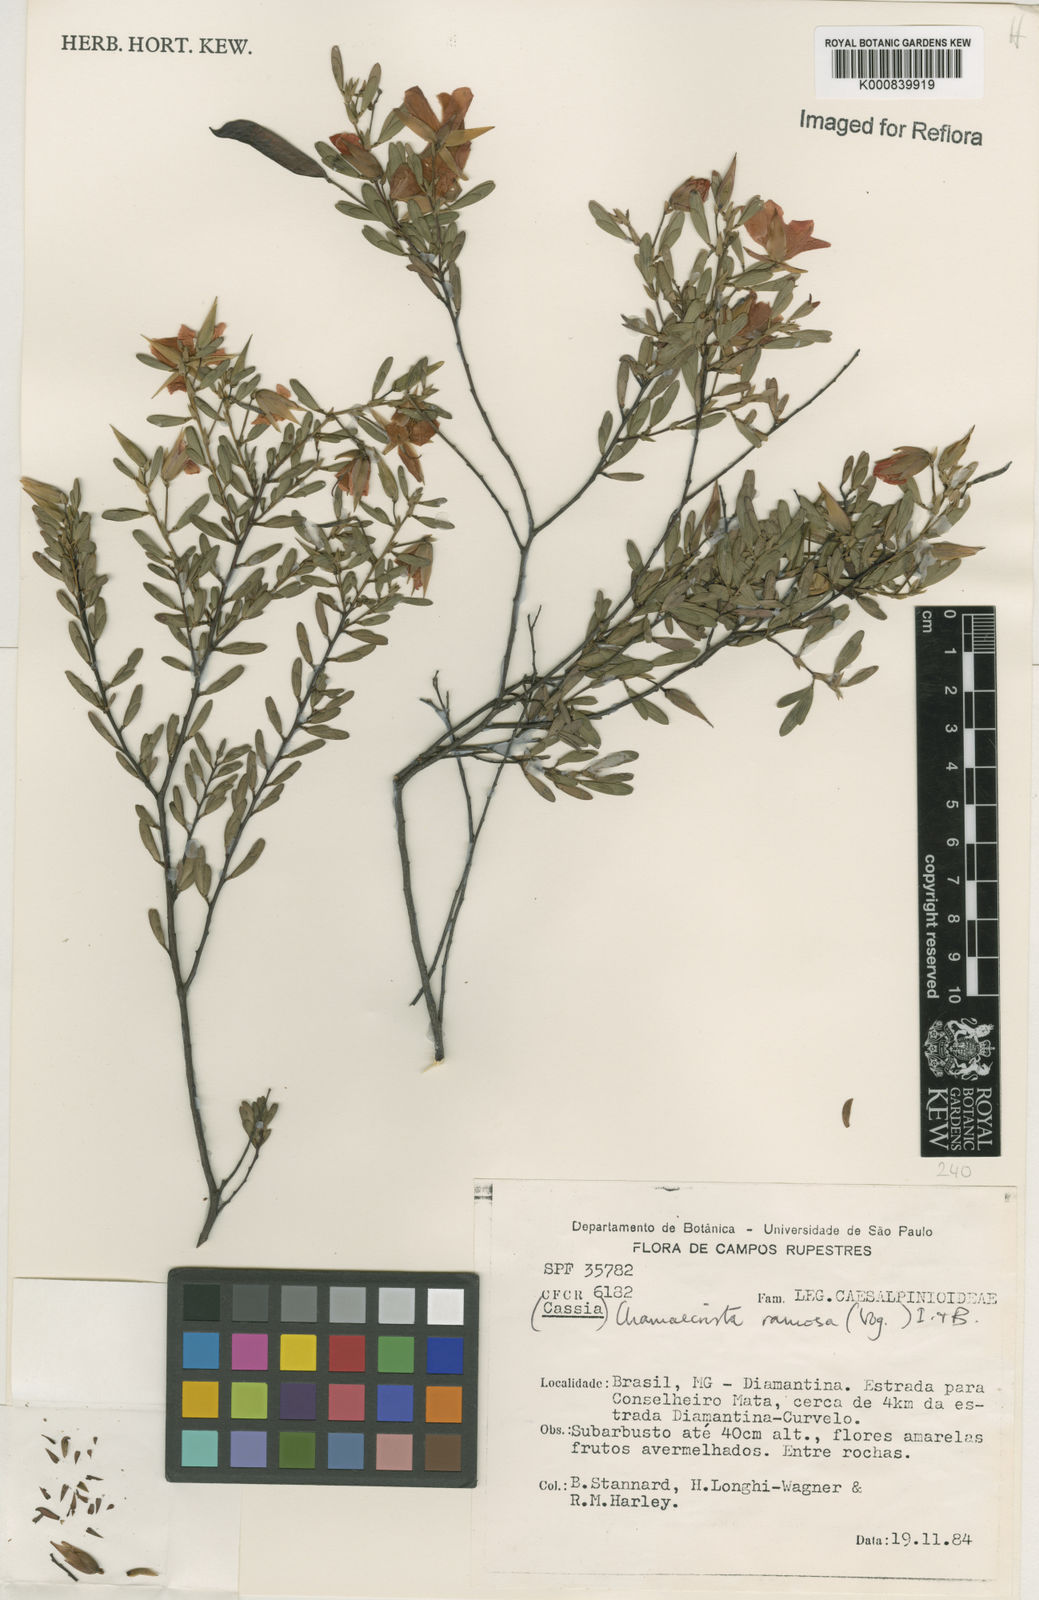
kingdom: Plantae
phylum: Tracheophyta
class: Magnoliopsida
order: Fabales
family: Fabaceae
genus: Chamaecrista
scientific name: Chamaecrista ramosa
